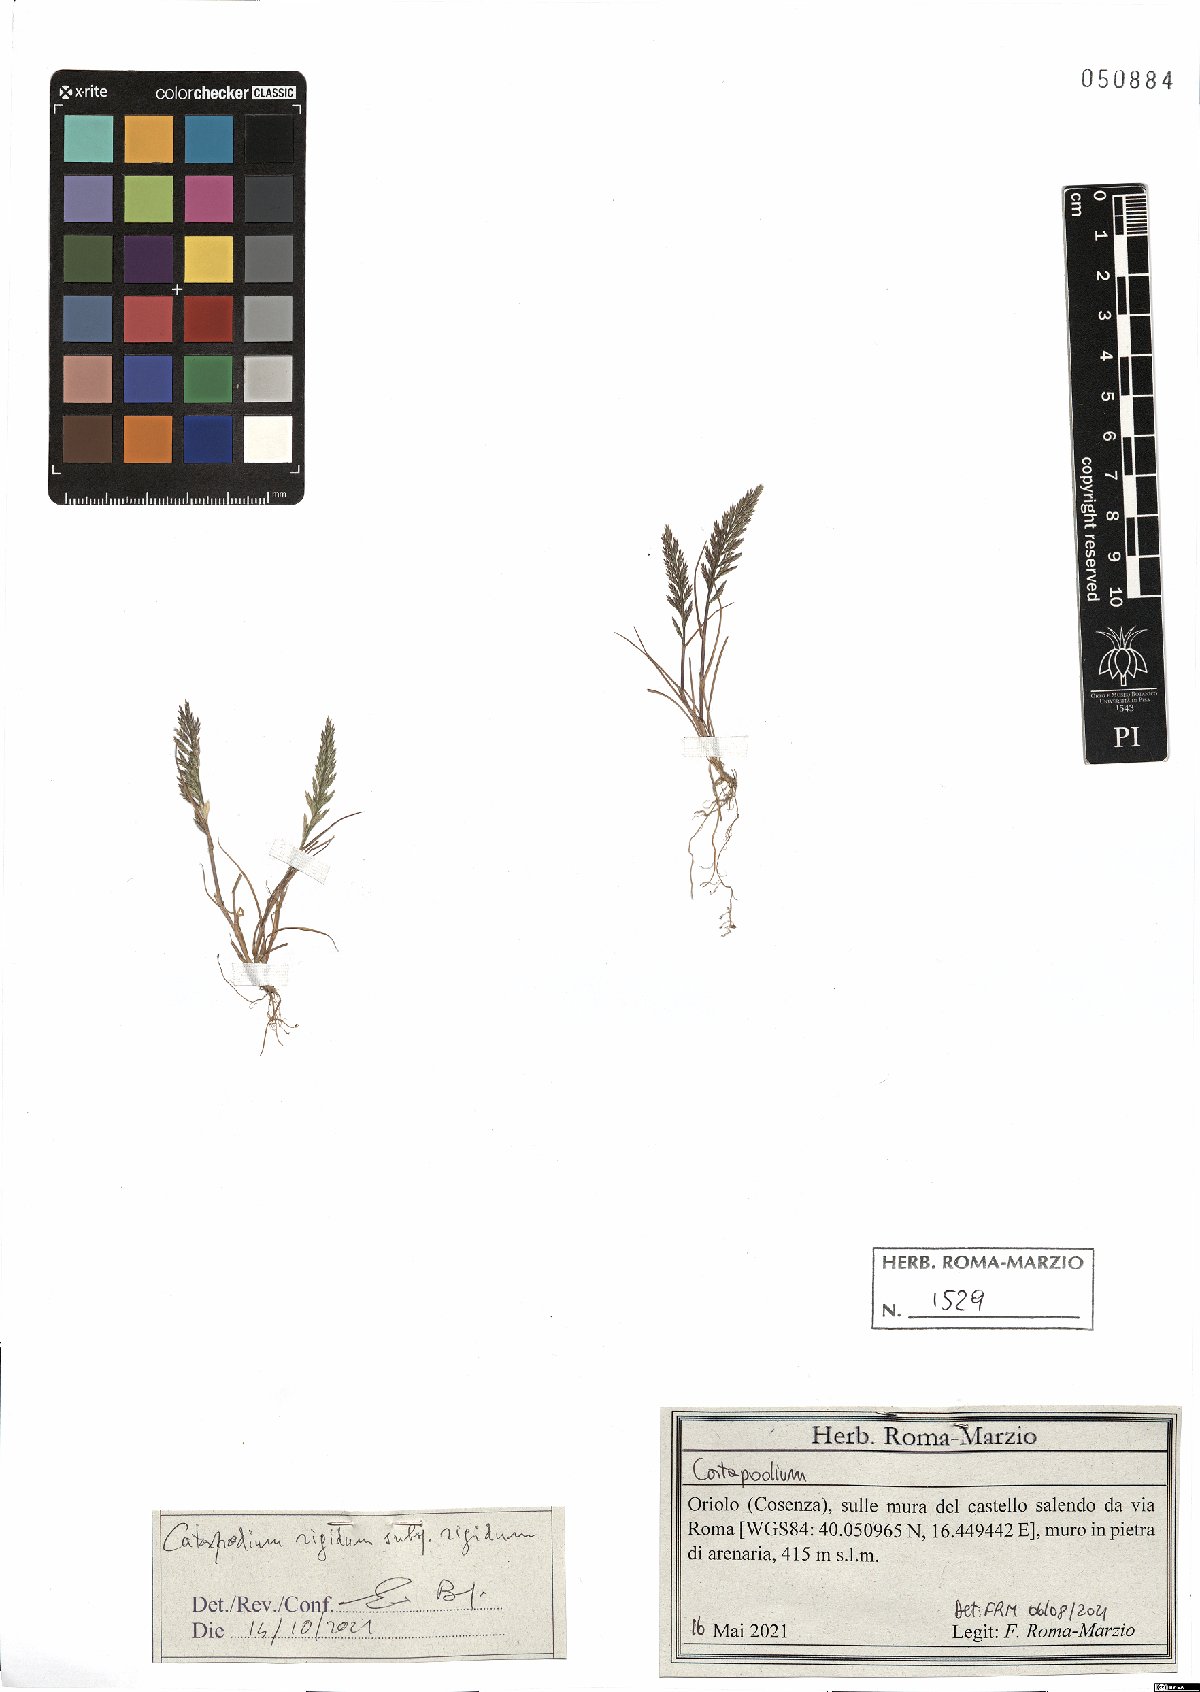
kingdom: Plantae
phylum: Tracheophyta
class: Liliopsida
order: Poales
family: Poaceae
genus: Catapodium
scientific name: Catapodium rigidum
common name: Fern-grass
